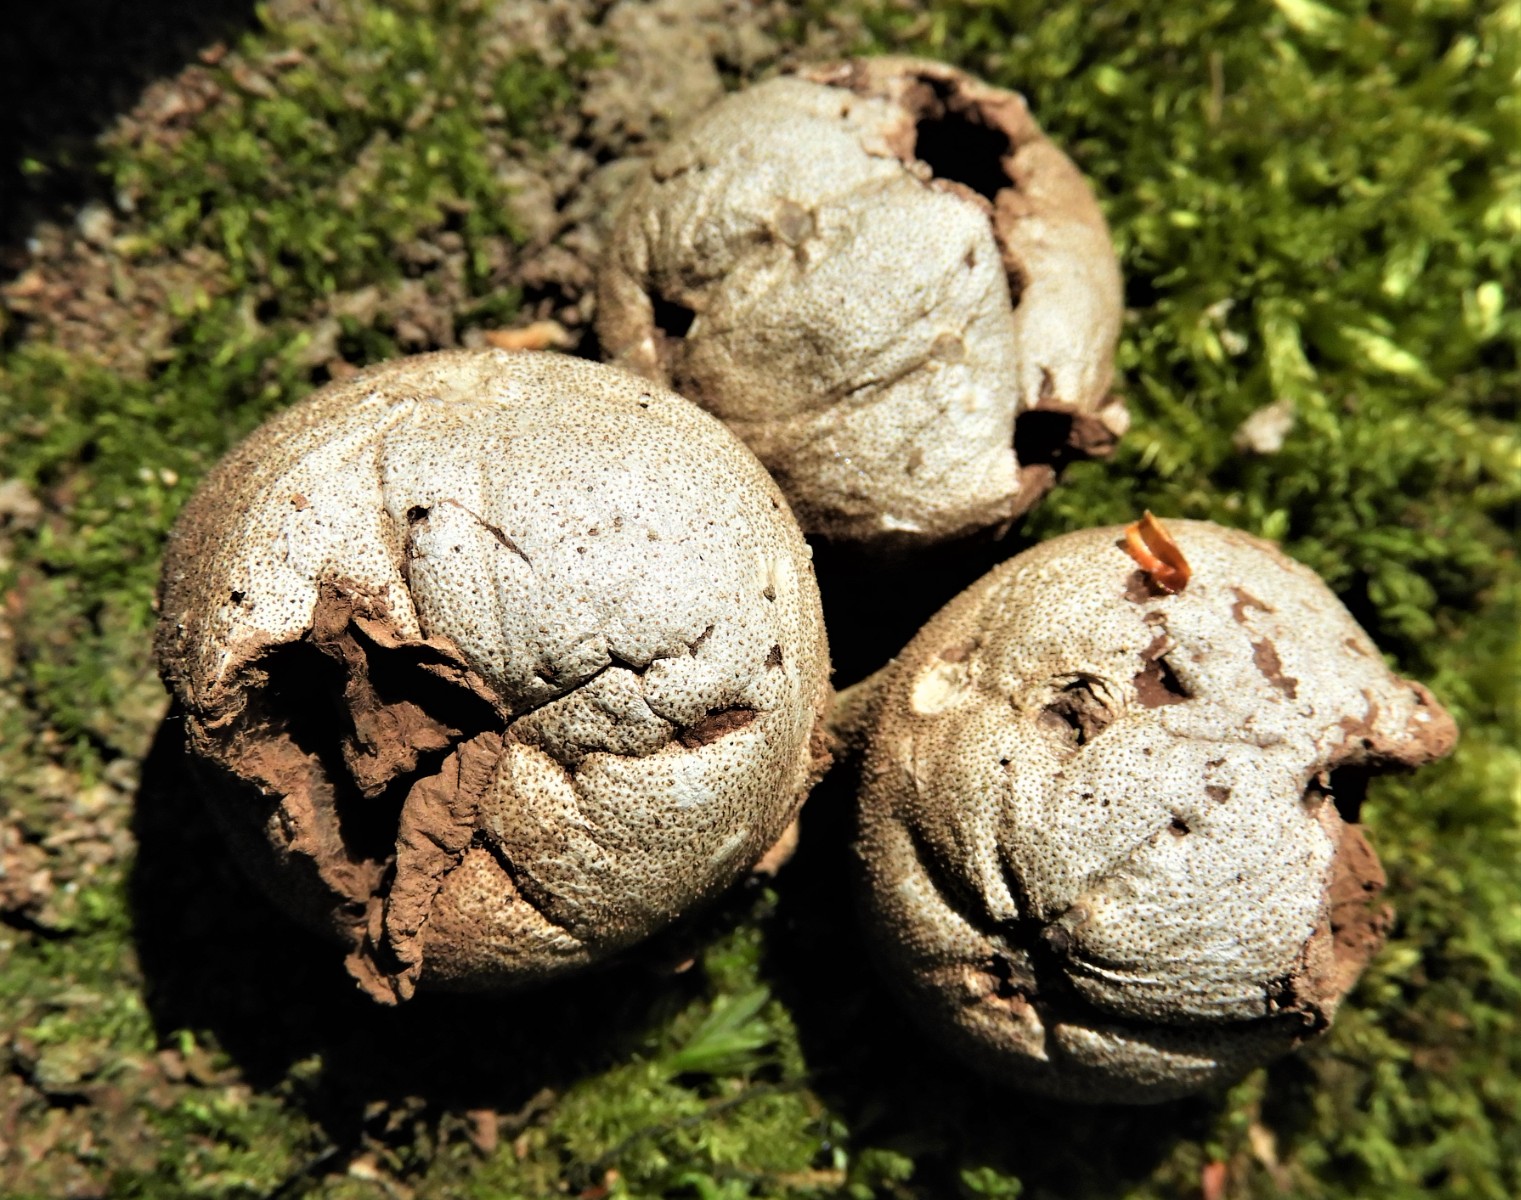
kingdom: Fungi
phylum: Basidiomycota
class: Agaricomycetes
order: Agaricales
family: Lycoperdaceae
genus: Apioperdon
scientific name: Apioperdon pyriforme
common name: pære-støvbold
